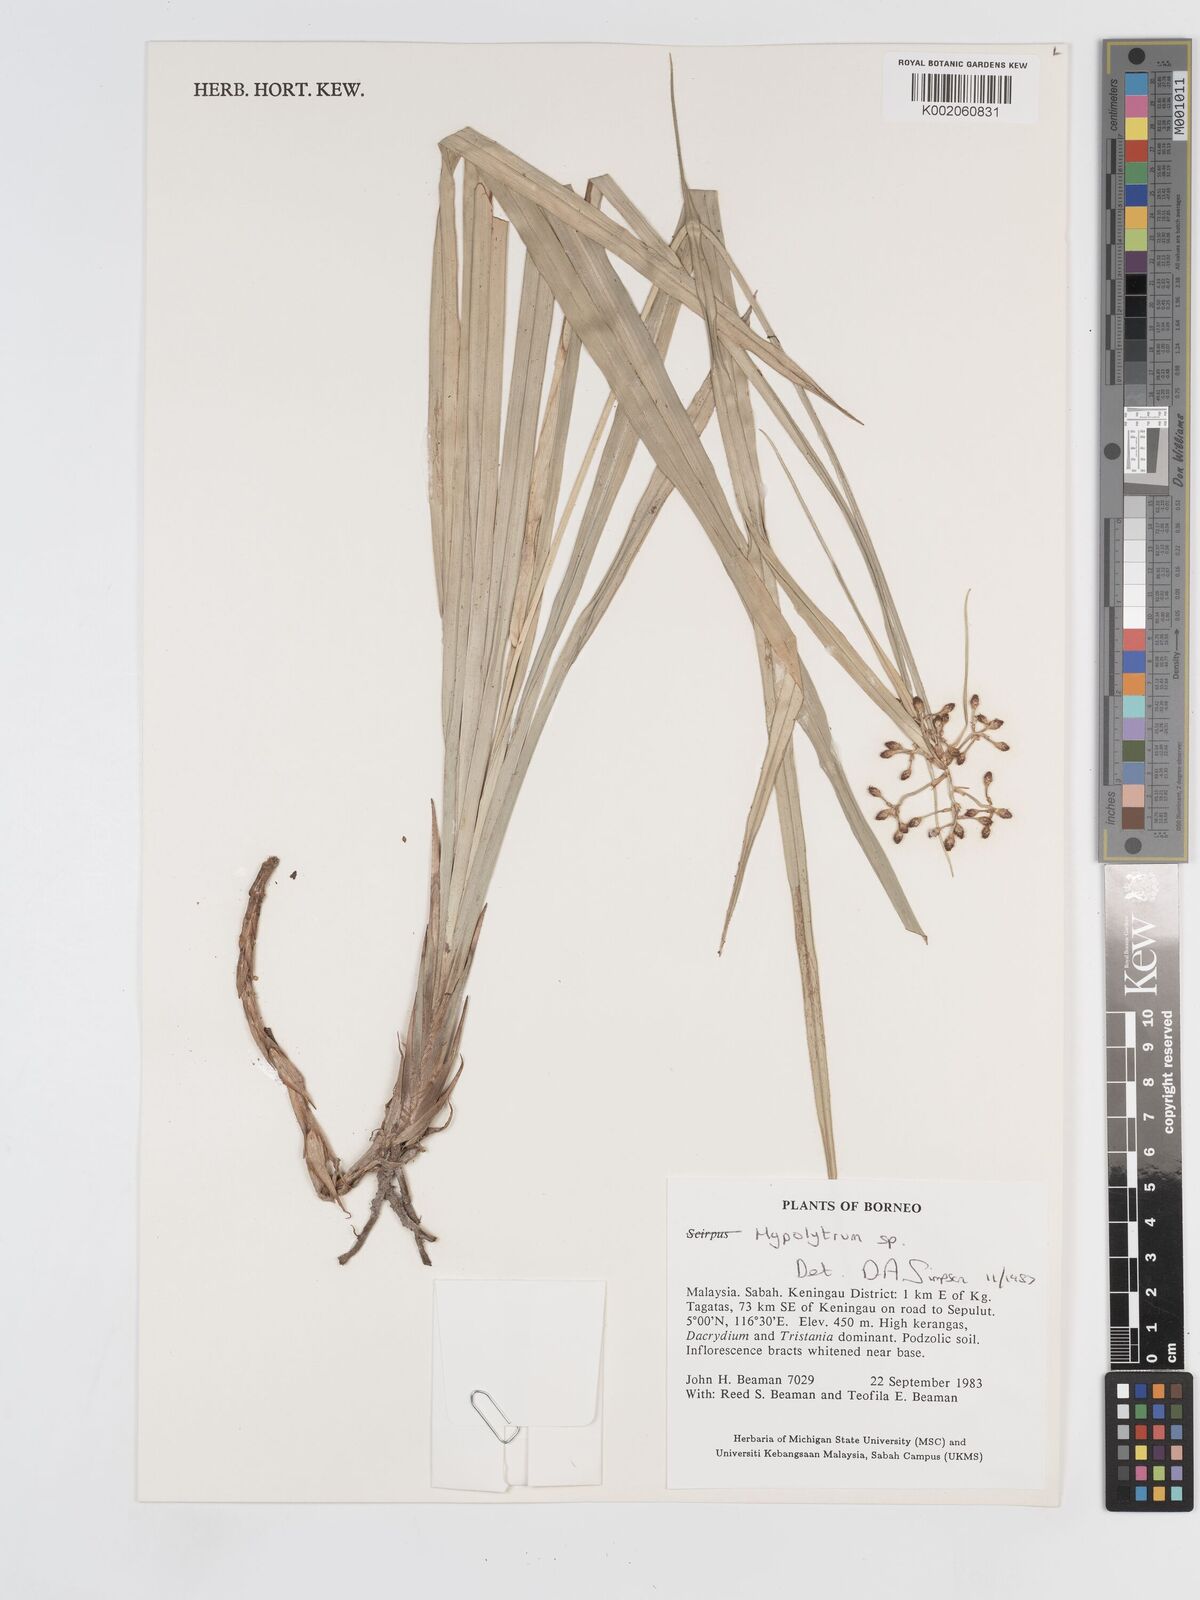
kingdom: Plantae
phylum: Tracheophyta
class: Liliopsida
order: Poales
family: Cyperaceae
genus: Hypolytrum
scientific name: Hypolytrum
